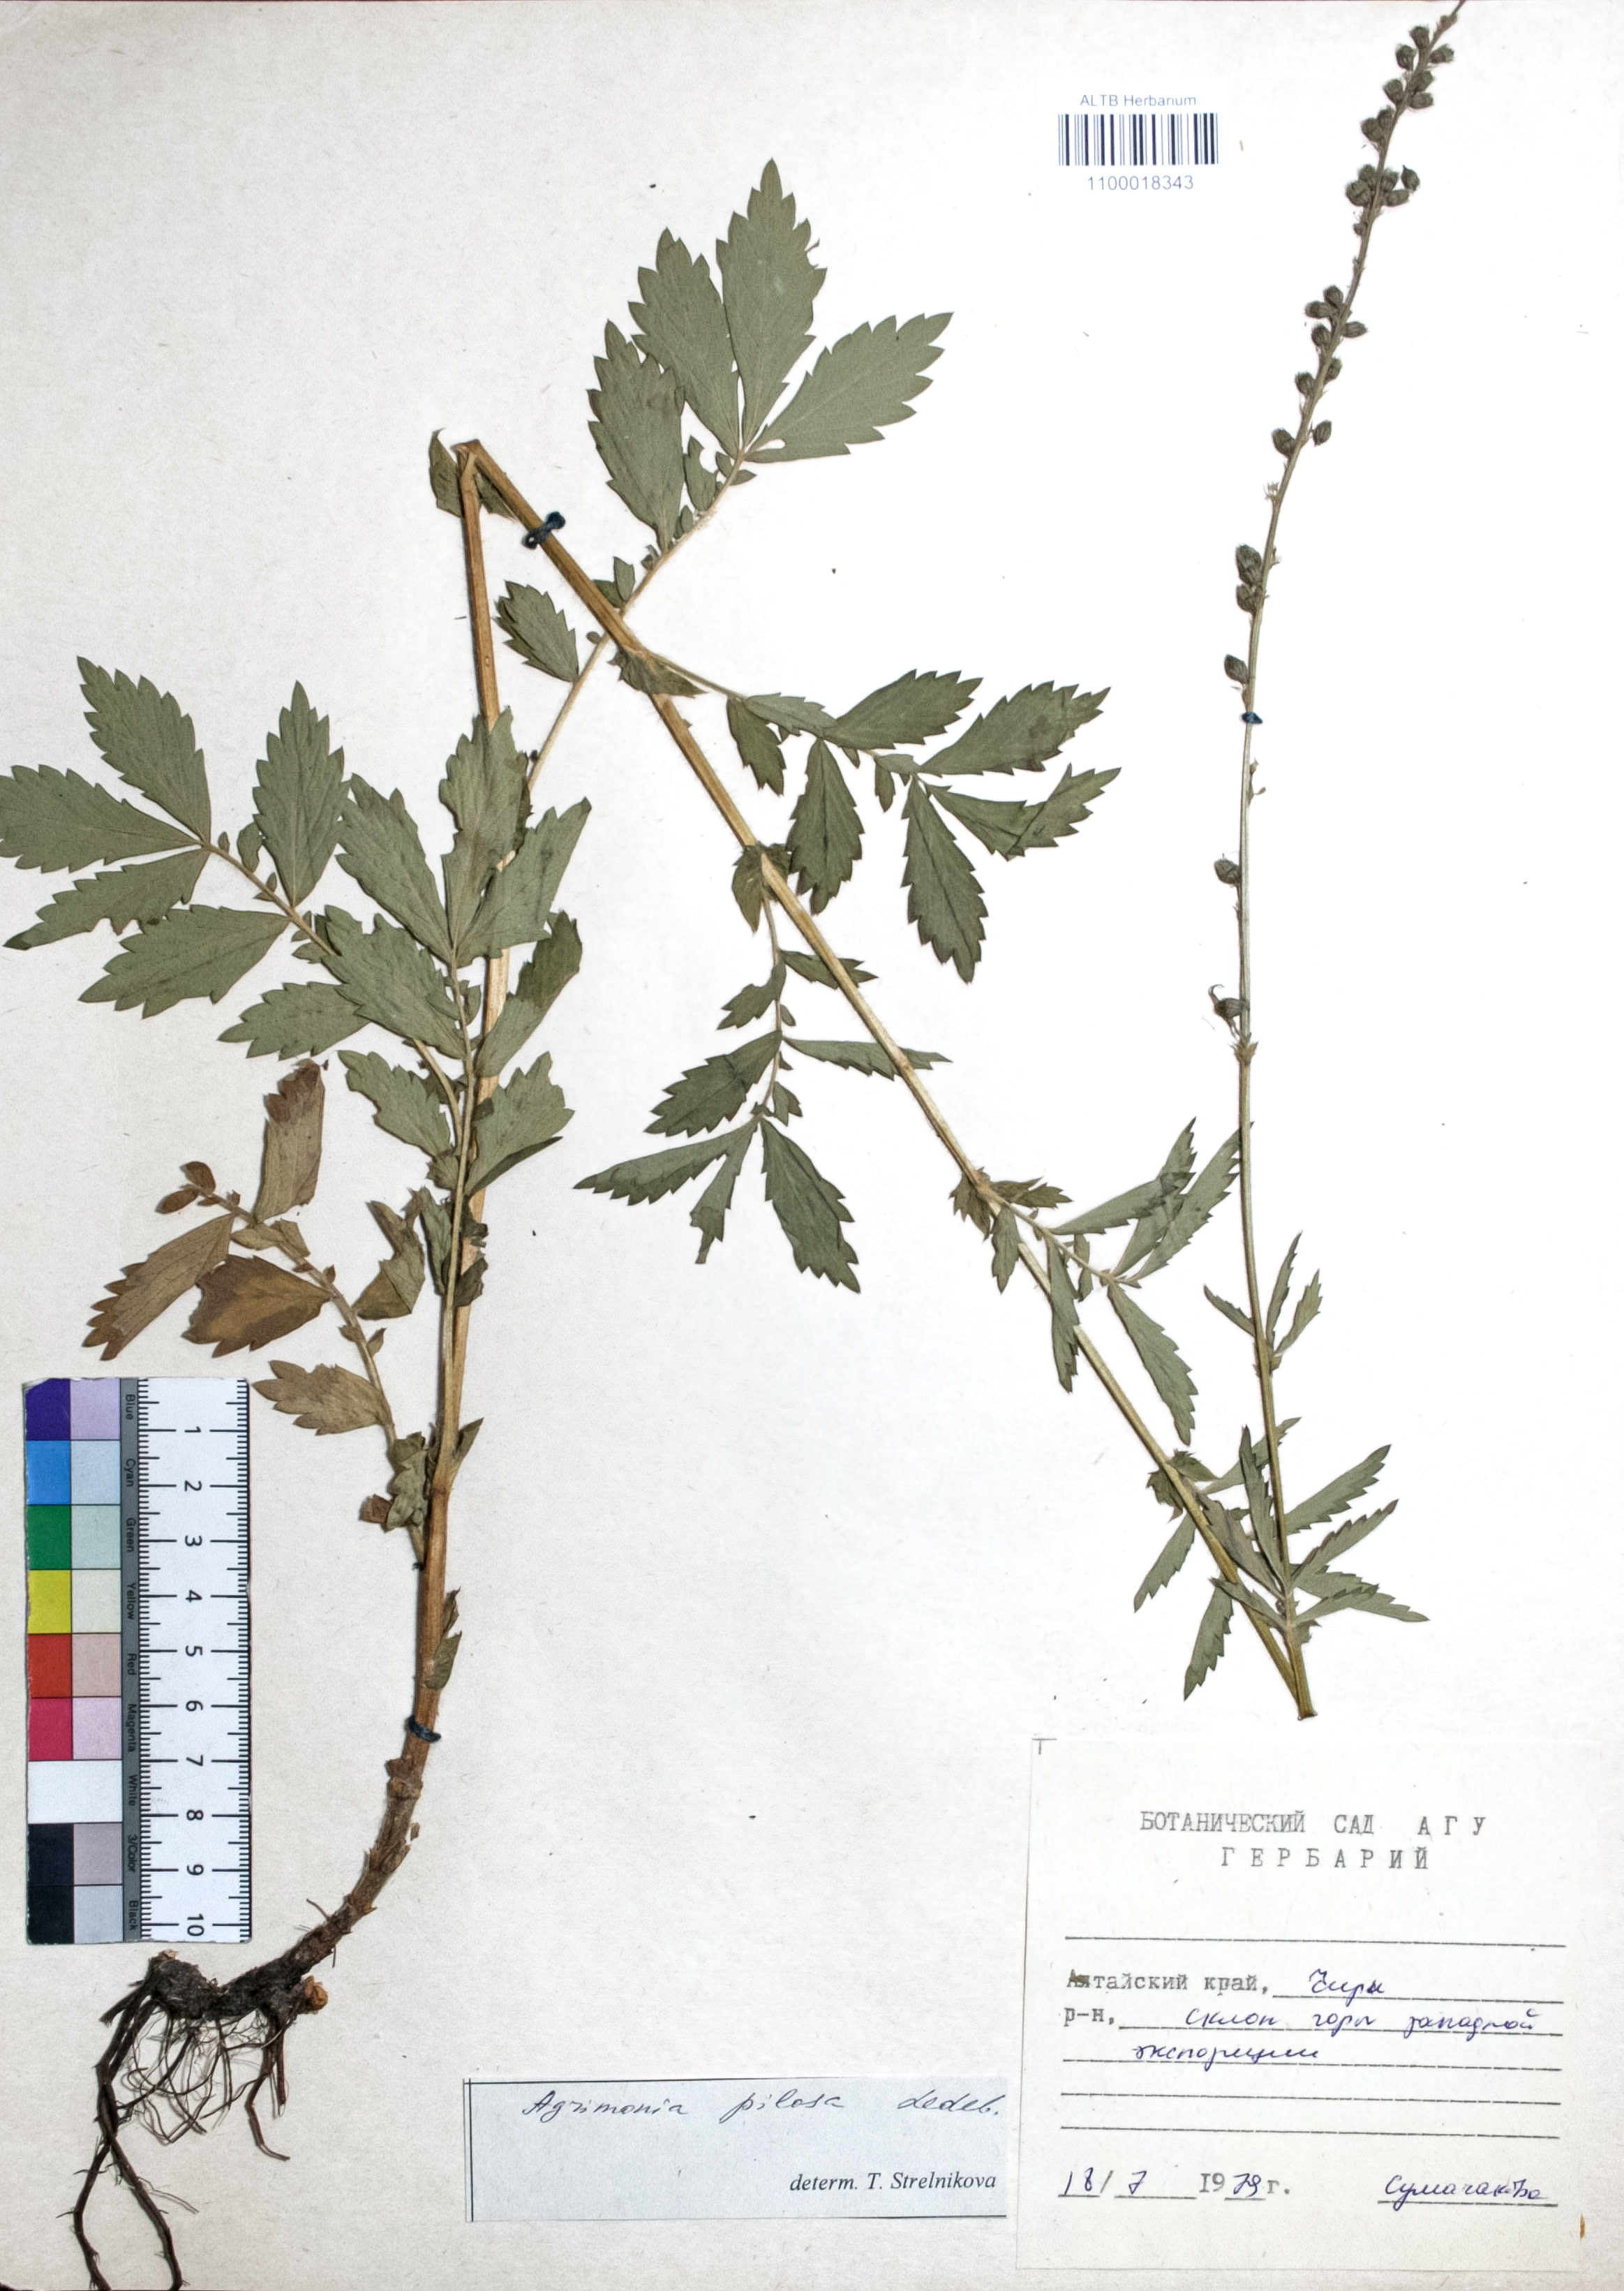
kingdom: Plantae
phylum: Tracheophyta
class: Magnoliopsida
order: Rosales
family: Rosaceae
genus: Agrimonia
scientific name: Agrimonia pilosa
